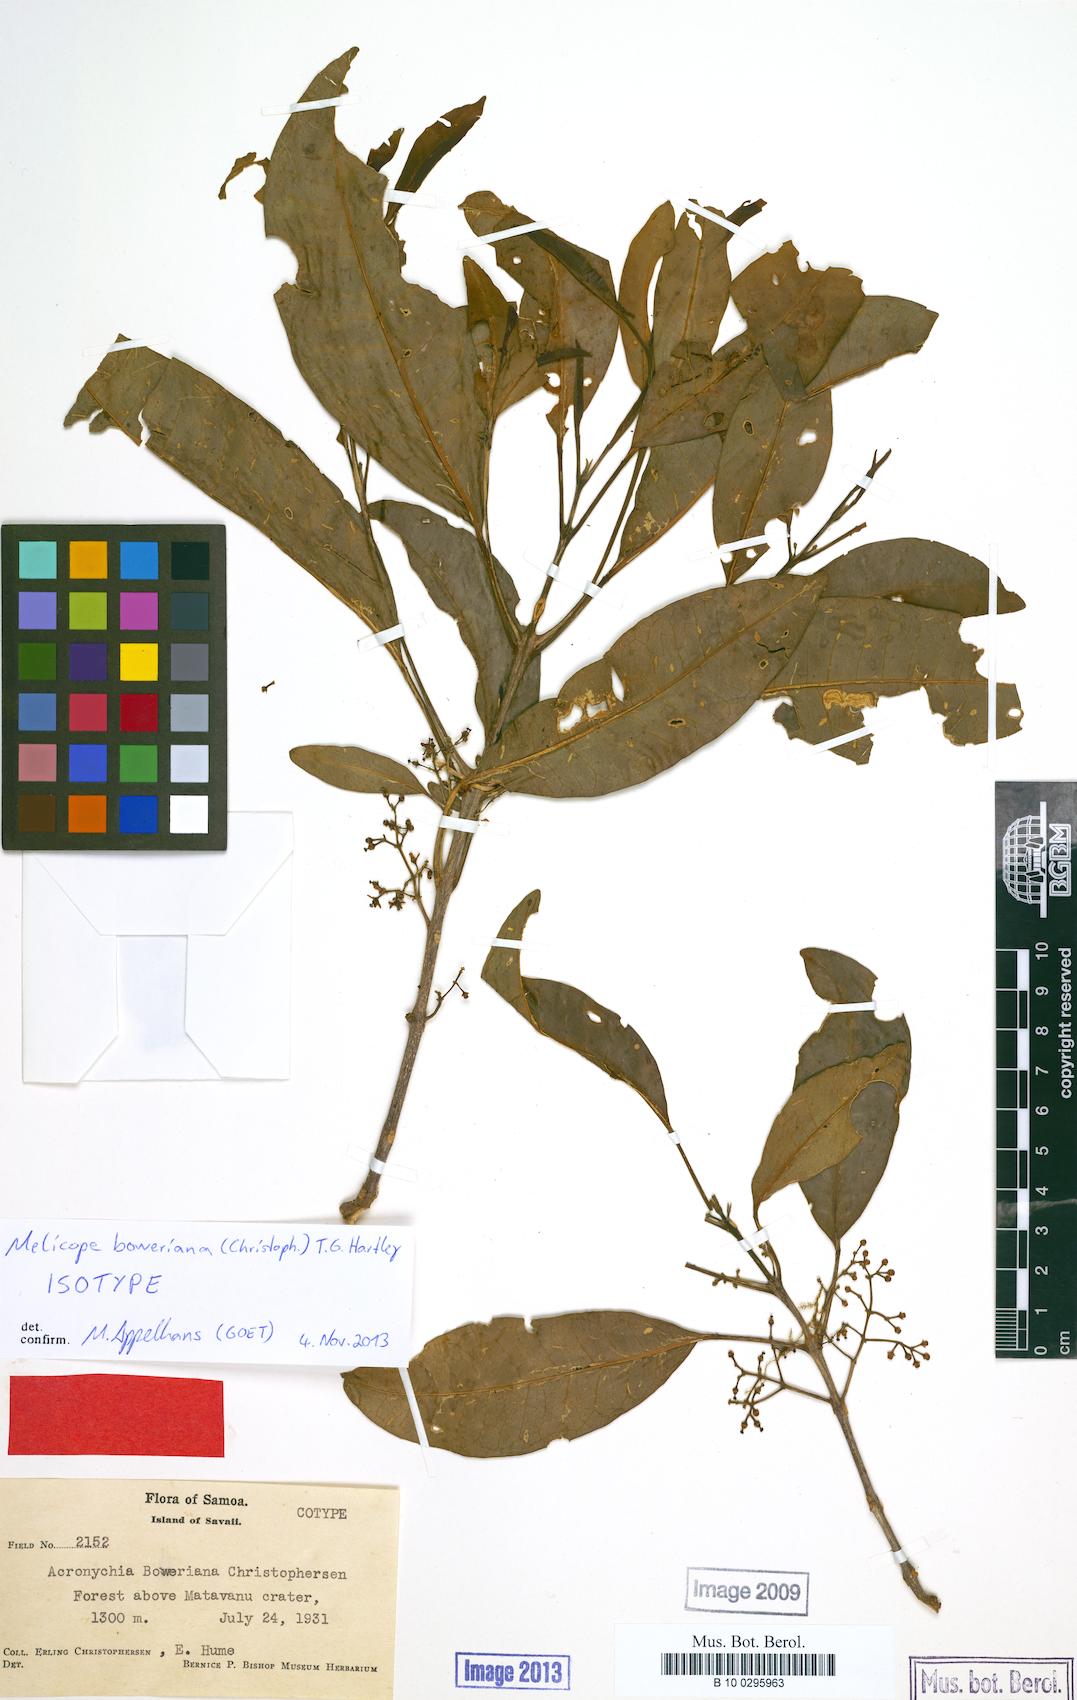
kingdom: Plantae
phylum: Tracheophyta
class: Magnoliopsida
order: Sapindales
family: Rutaceae
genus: Melicope
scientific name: Melicope boweriana
